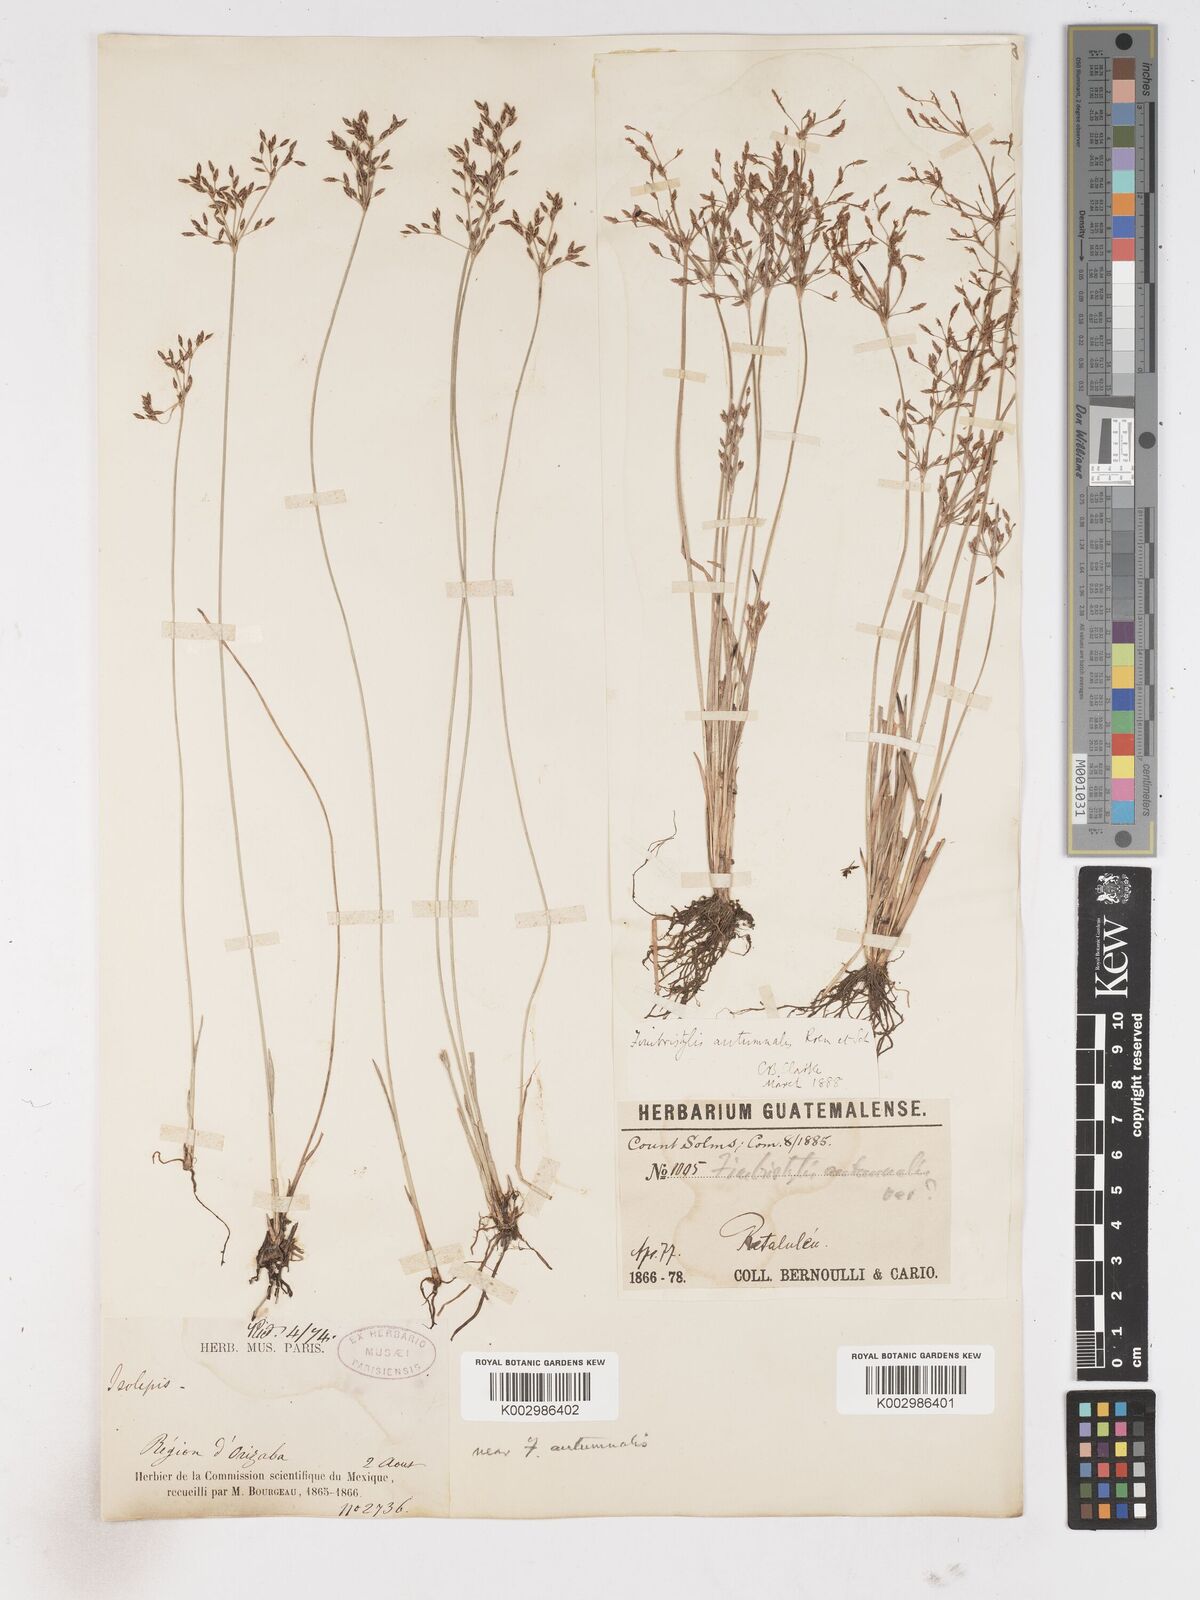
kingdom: Plantae
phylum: Tracheophyta
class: Liliopsida
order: Poales
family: Cyperaceae
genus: Fimbristylis
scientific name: Fimbristylis autumnalis
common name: Slender fimbristylis
